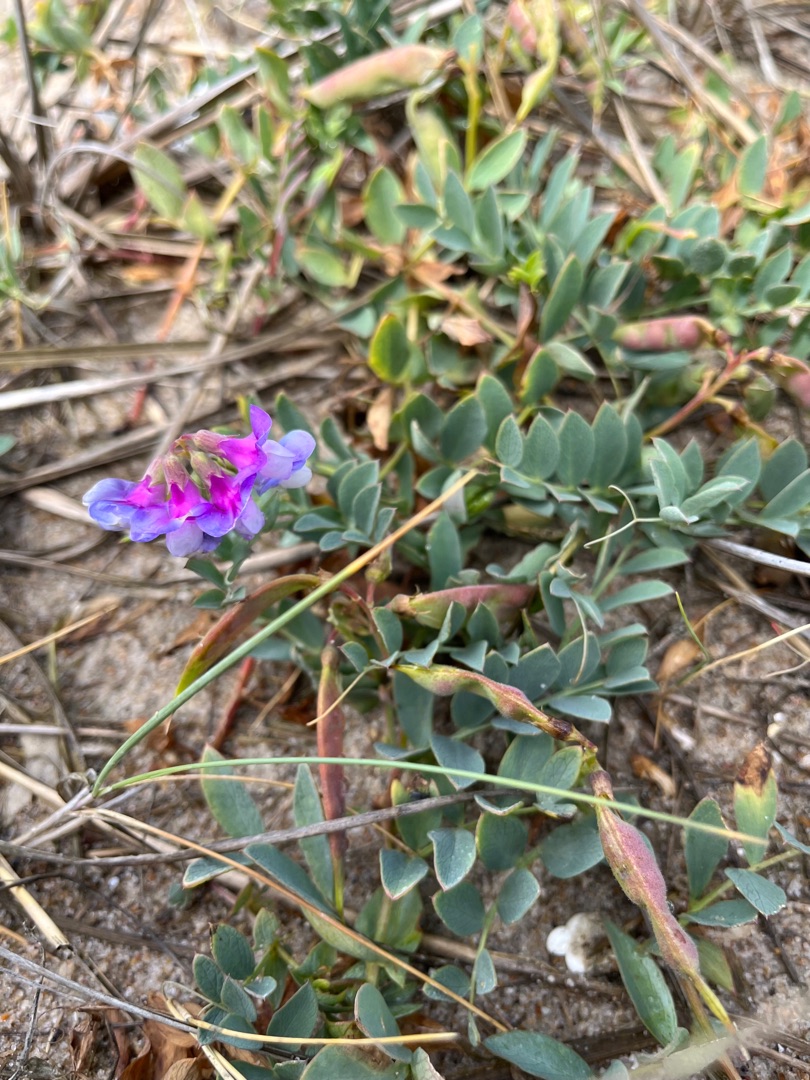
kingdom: Plantae
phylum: Tracheophyta
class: Magnoliopsida
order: Fabales
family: Fabaceae
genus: Lathyrus
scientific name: Lathyrus japonicus
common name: Klit-fladbælg
